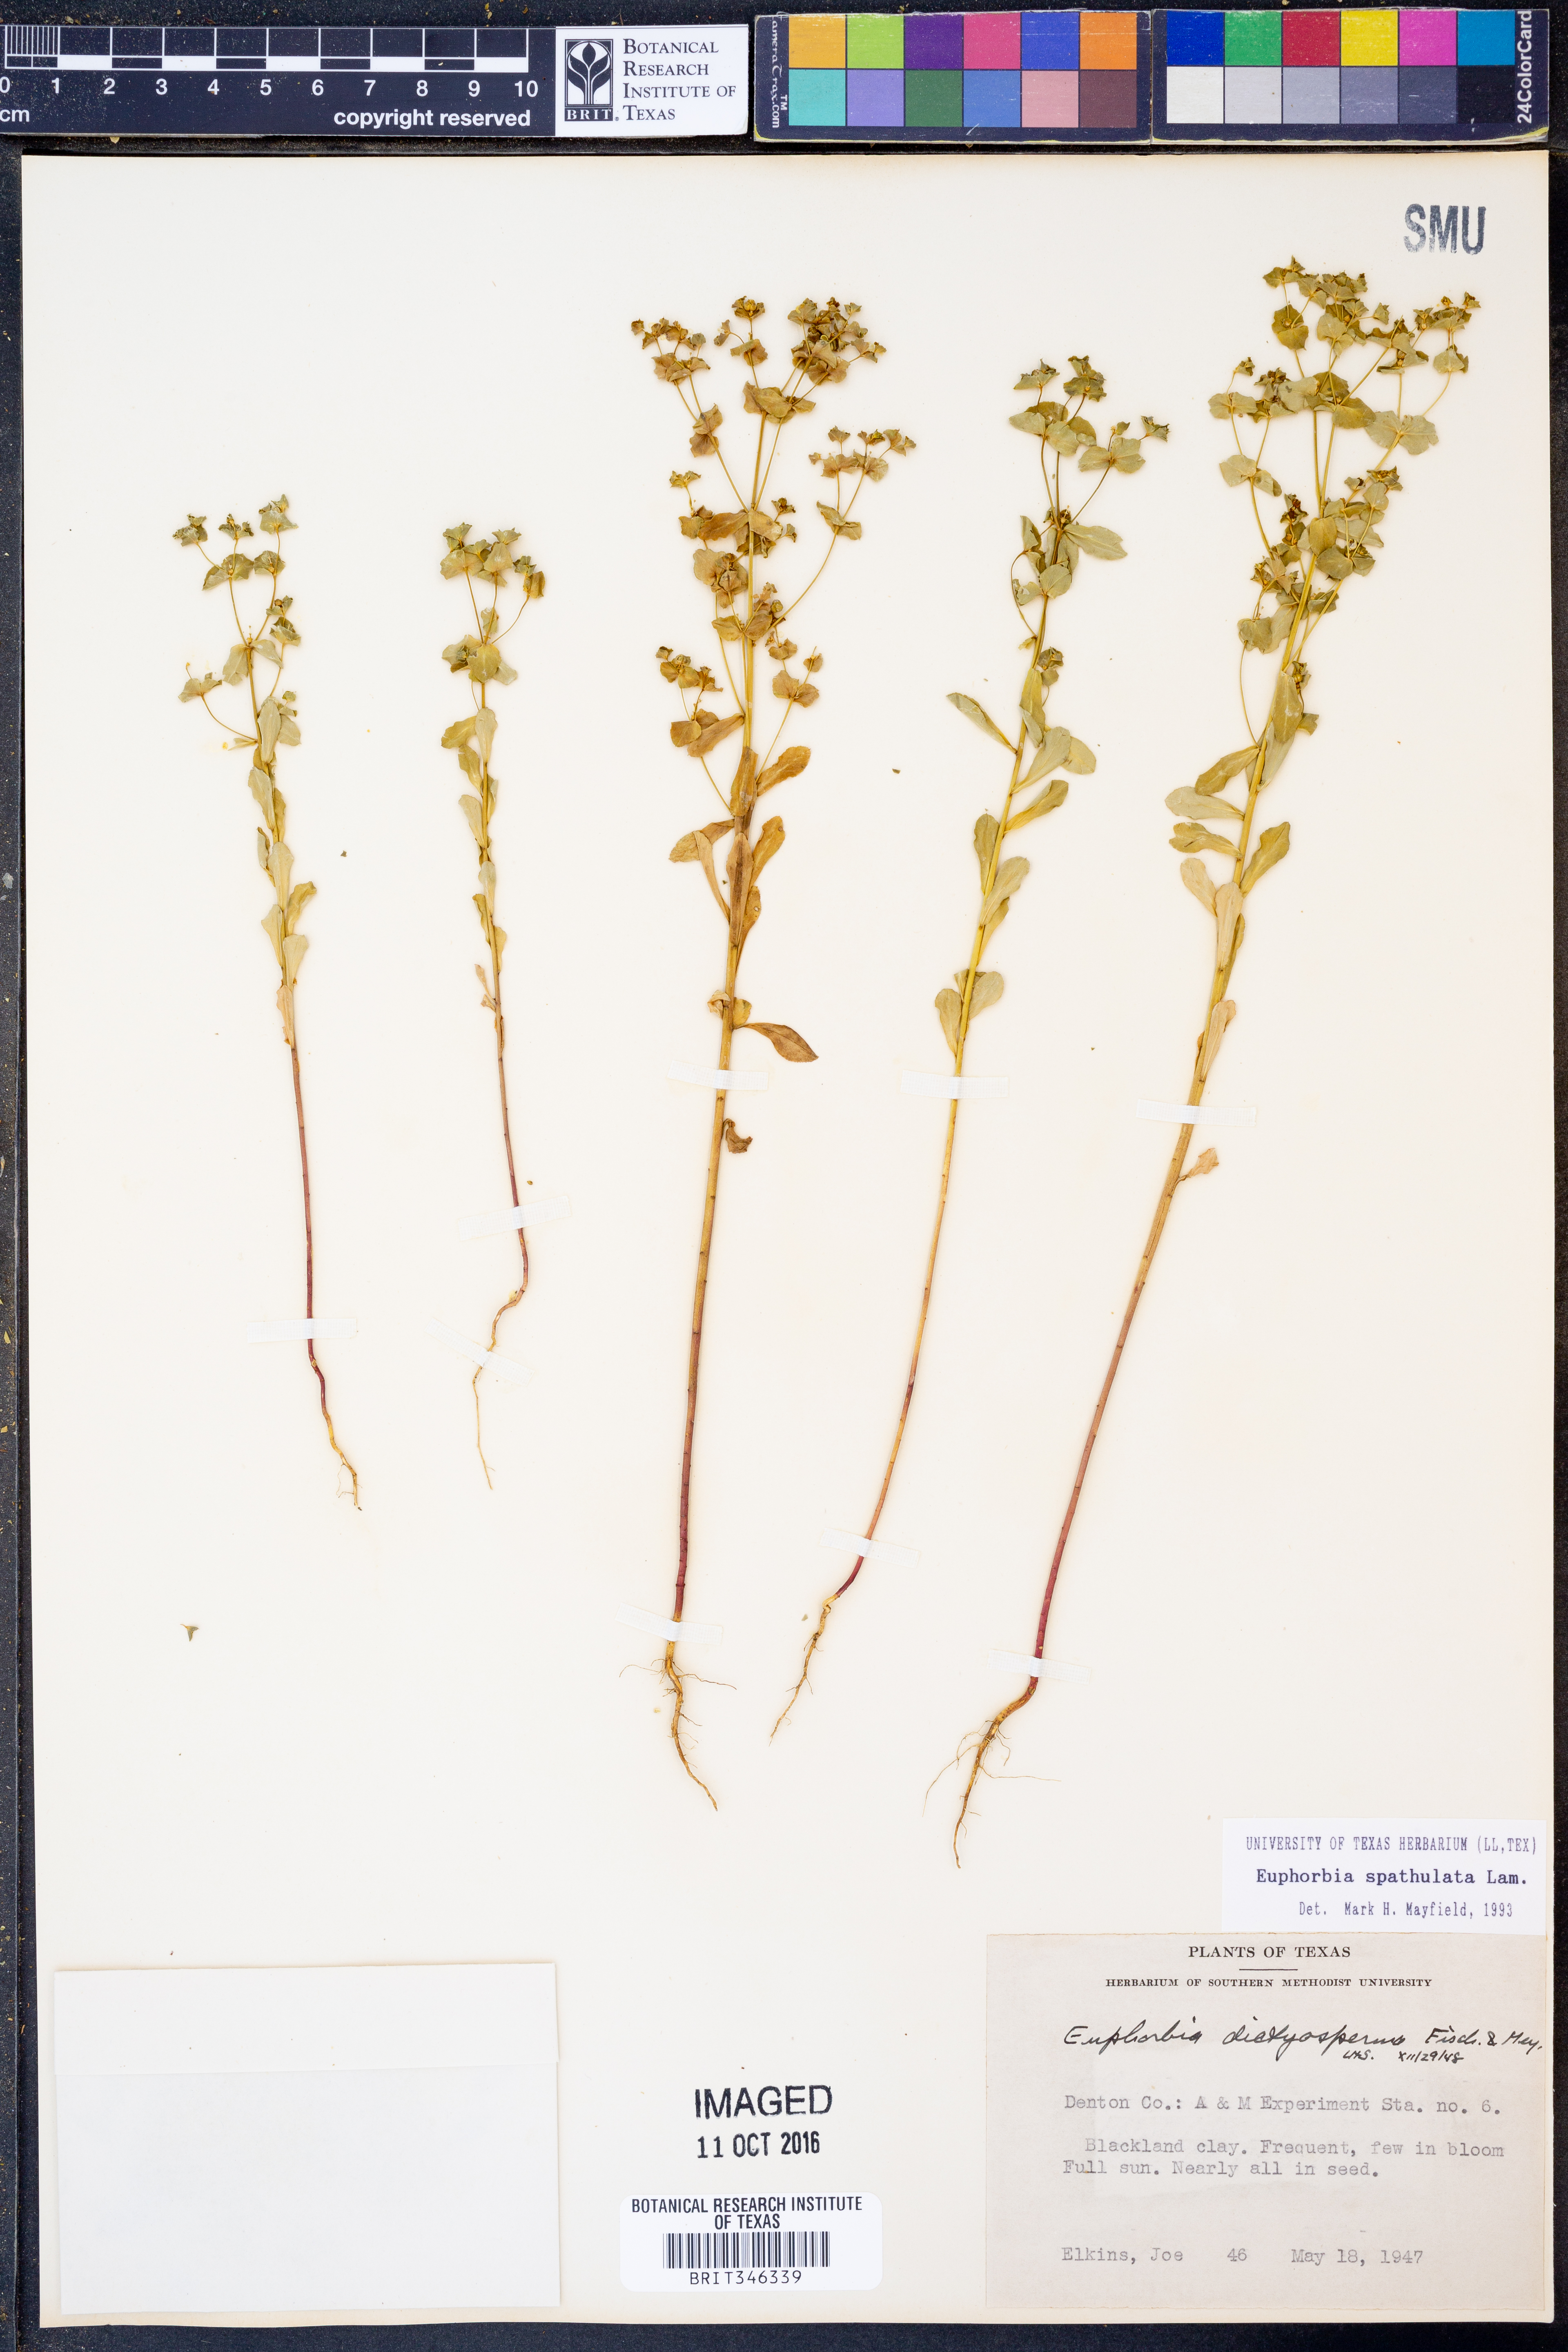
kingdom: Plantae
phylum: Tracheophyta
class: Magnoliopsida
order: Malpighiales
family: Euphorbiaceae
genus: Euphorbia
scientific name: Euphorbia spathulata
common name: Blunt spurge
